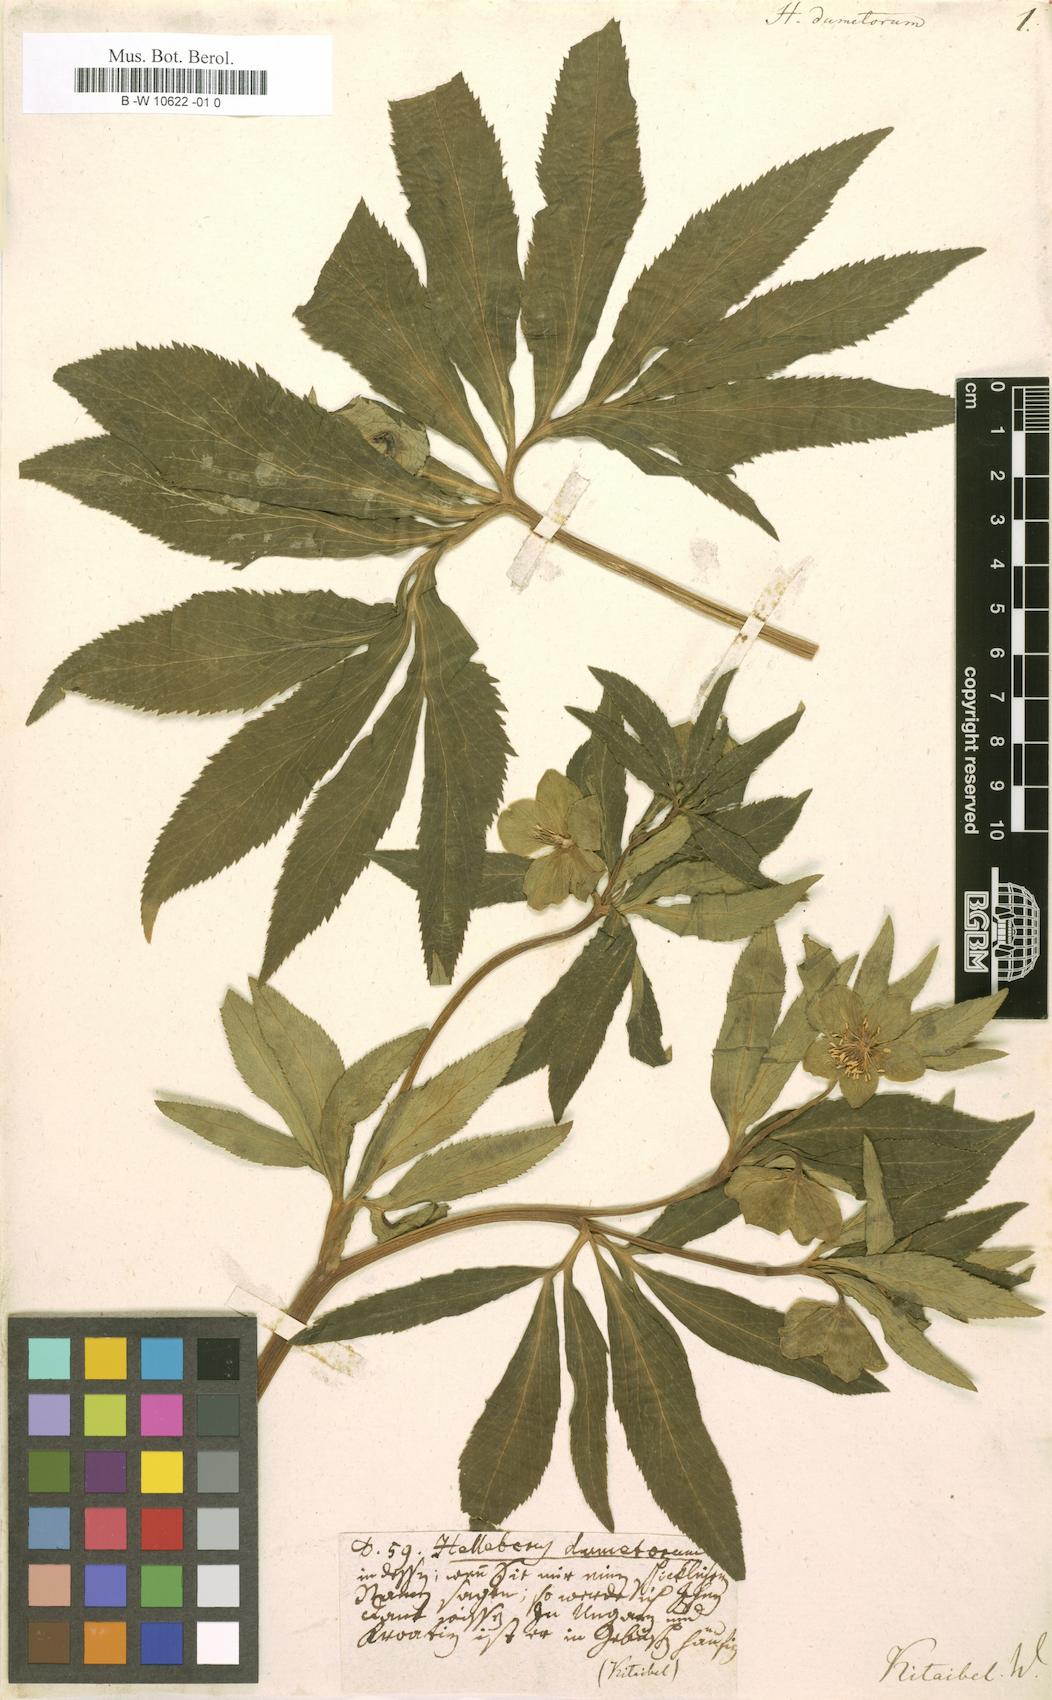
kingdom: Plantae
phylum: Tracheophyta
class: Magnoliopsida
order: Ranunculales
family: Ranunculaceae
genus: Helleborus
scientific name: Helleborus dumetorum
